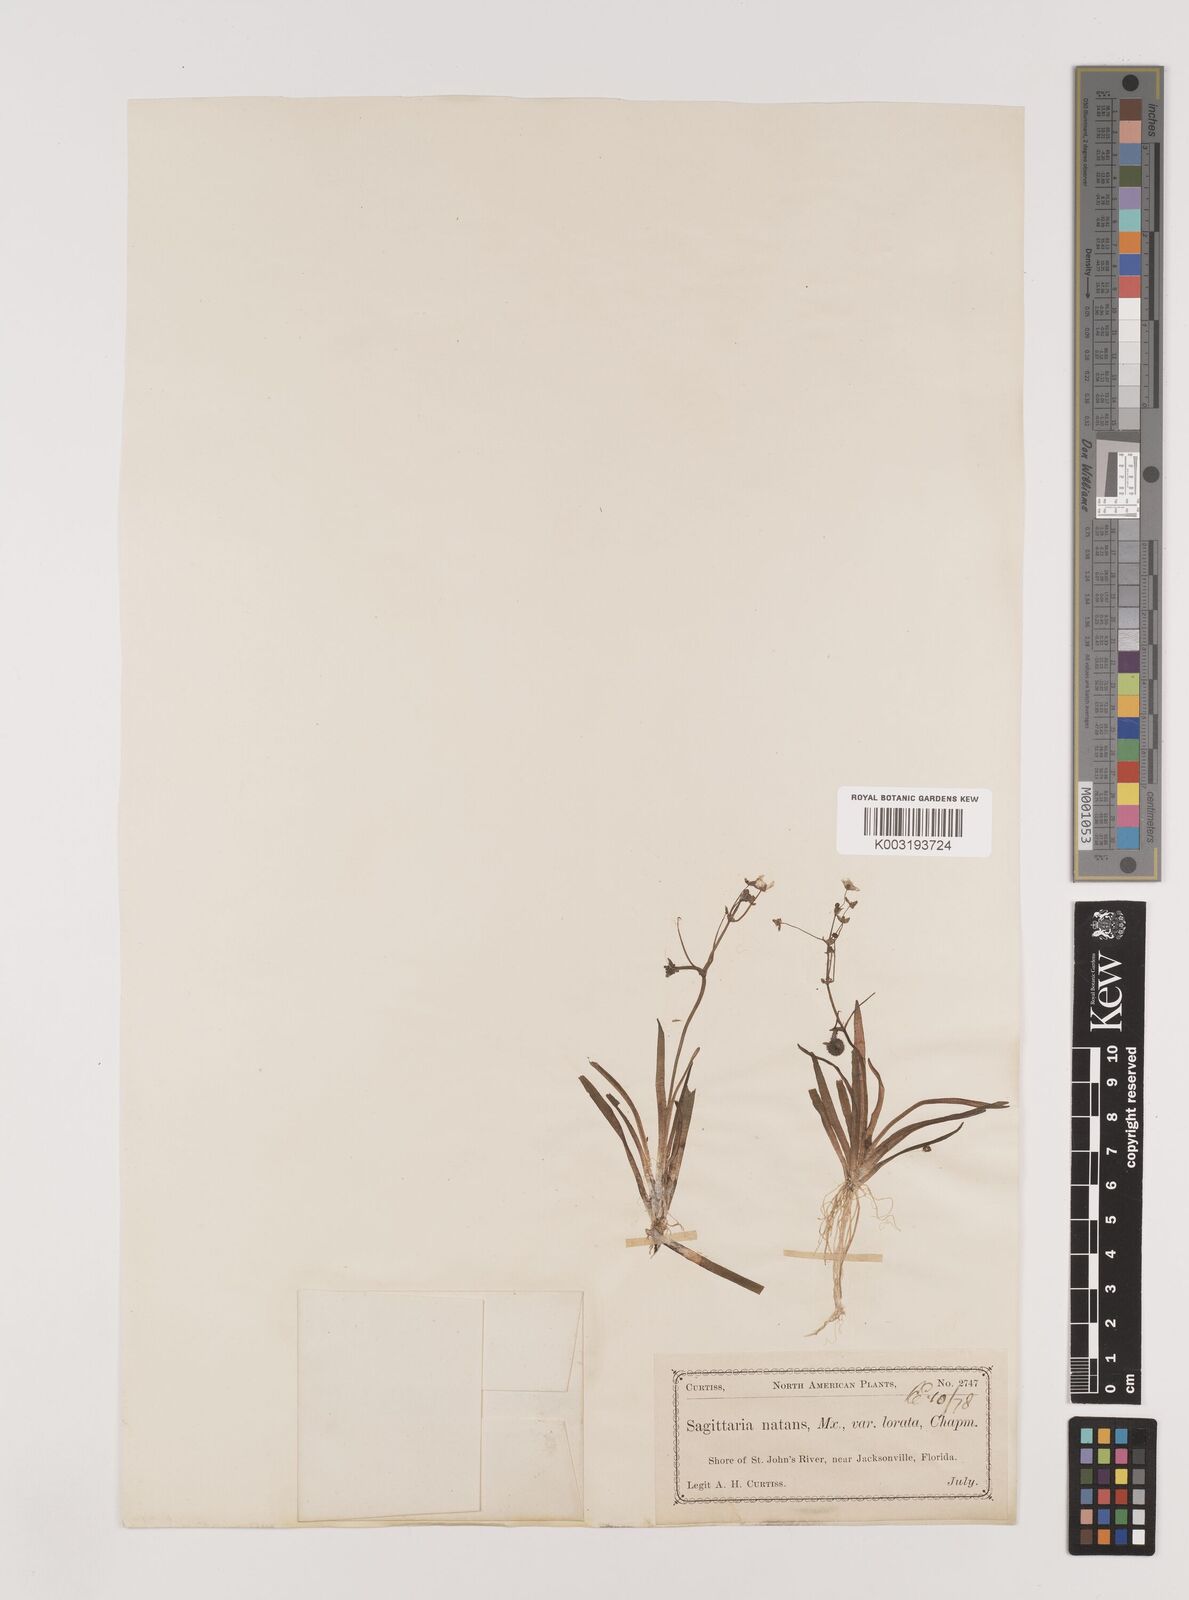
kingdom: Plantae
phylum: Tracheophyta
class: Liliopsida
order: Alismatales
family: Alismataceae
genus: Sagittaria
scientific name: Sagittaria subulata
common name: Narrow-leaved arrowhead
